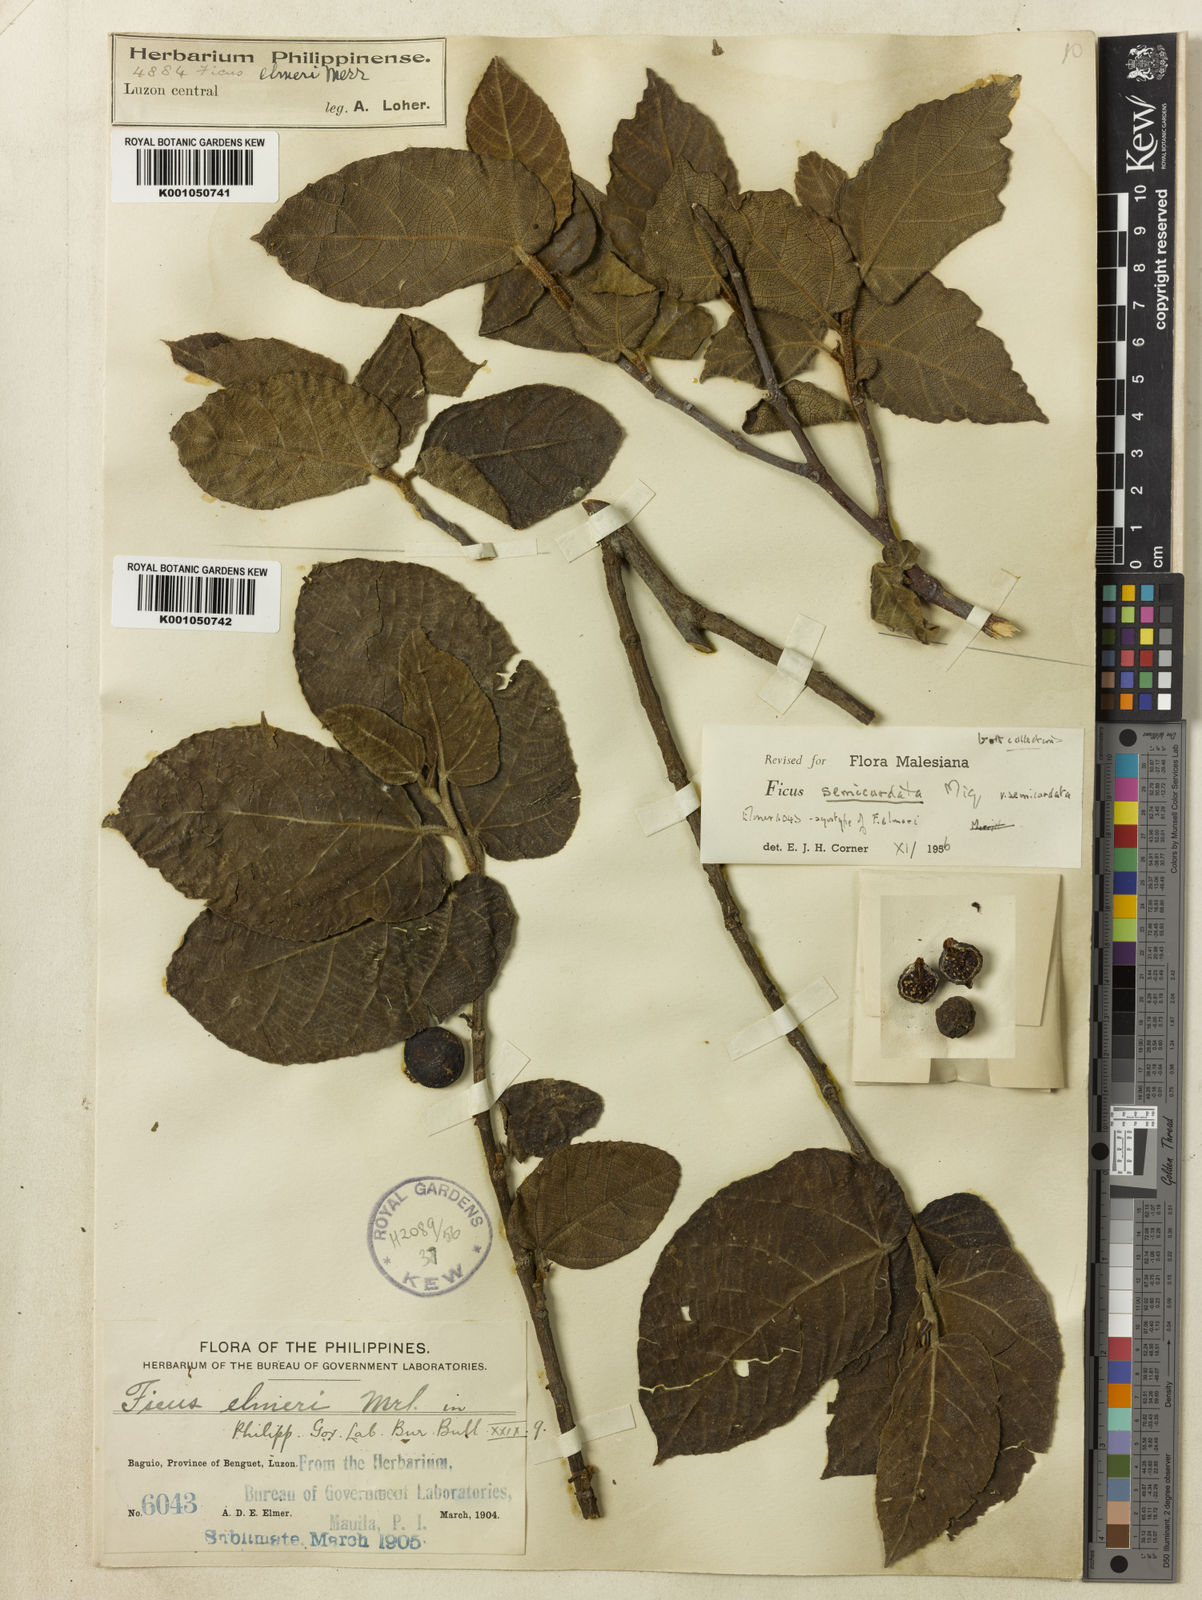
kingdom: Plantae
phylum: Tracheophyta
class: Magnoliopsida
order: Rosales
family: Moraceae
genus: Ficus
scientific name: Ficus elmeri
